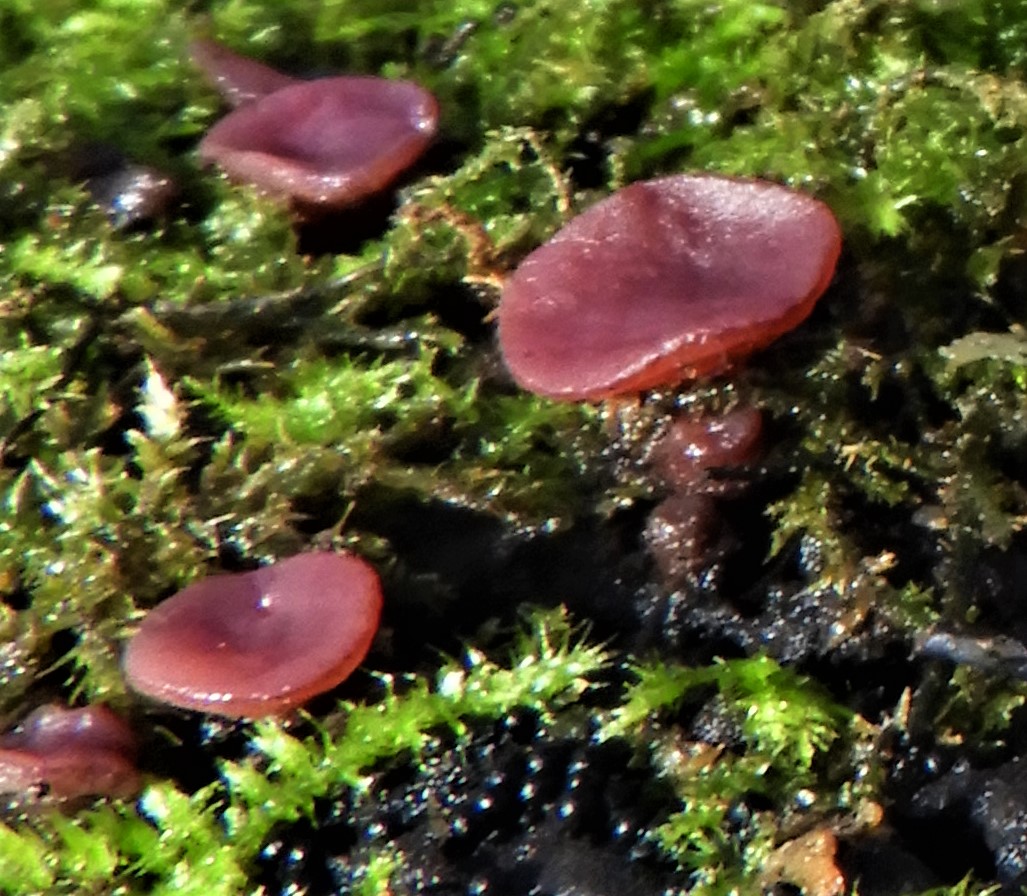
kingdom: Fungi
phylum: Ascomycota
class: Leotiomycetes
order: Helotiales
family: Gelatinodiscaceae
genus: Ascocoryne
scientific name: Ascocoryne cylichnium
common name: stor sejskive
